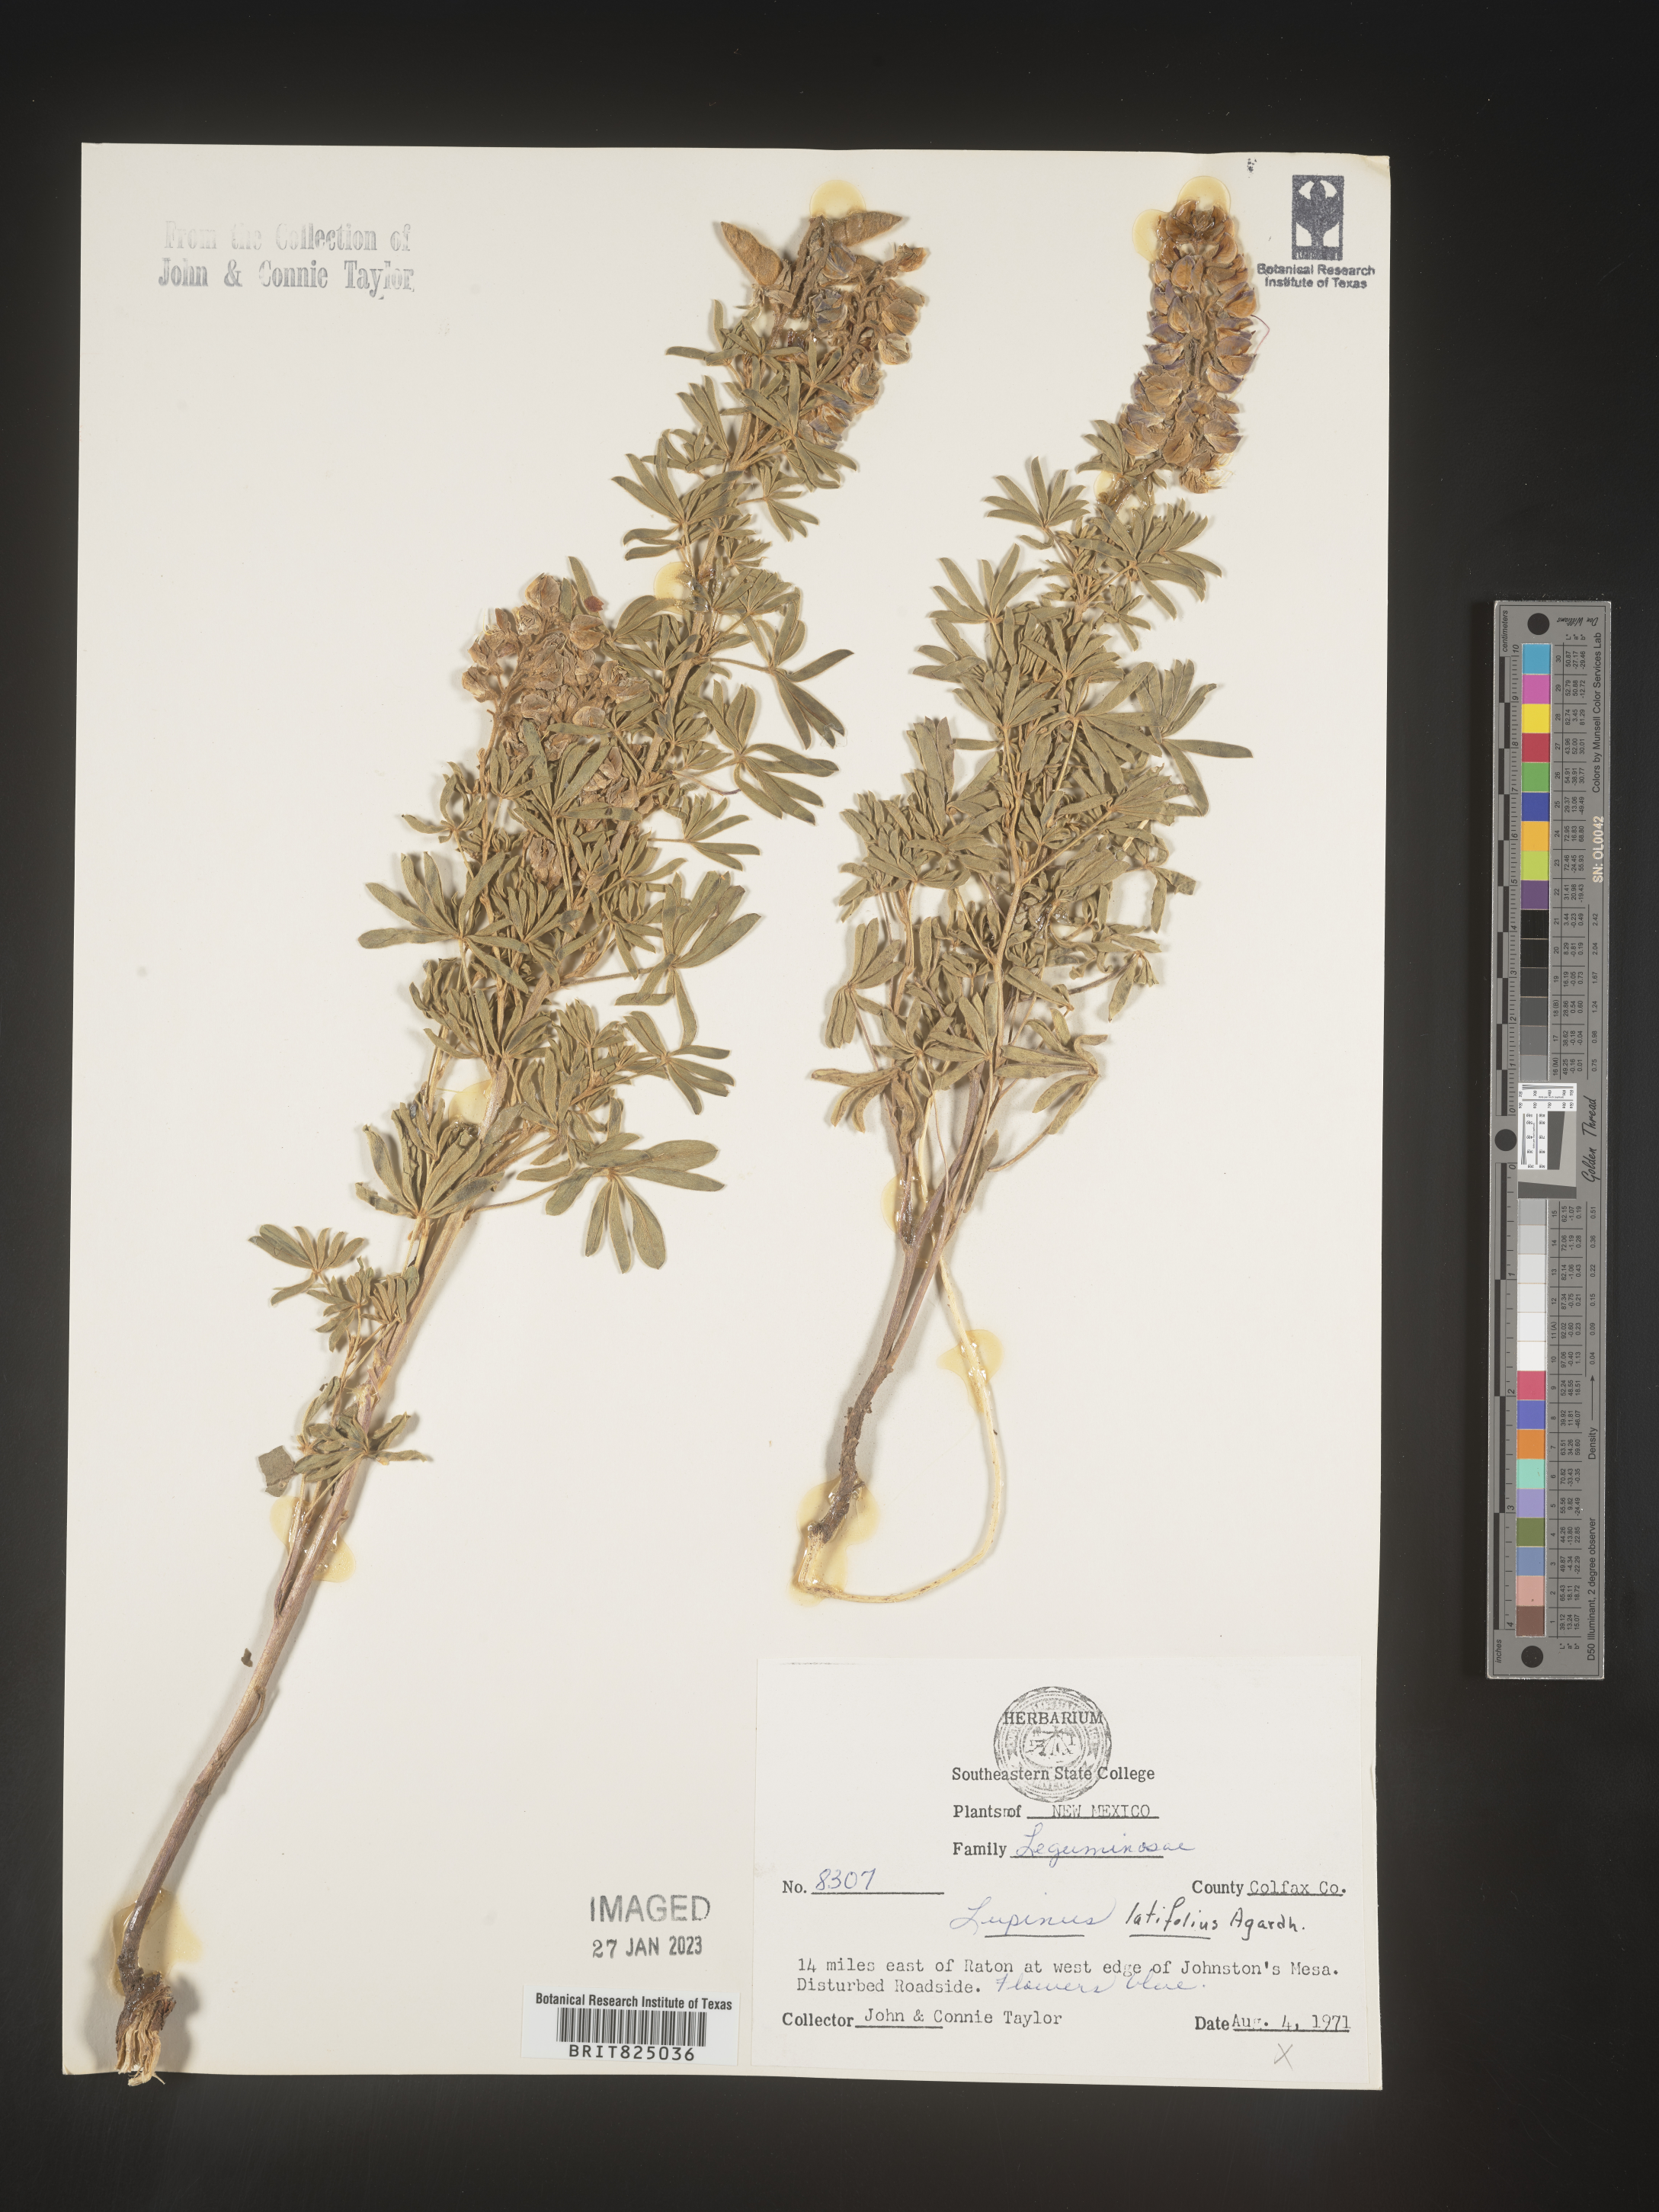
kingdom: Plantae
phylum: Tracheophyta
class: Magnoliopsida
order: Fabales
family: Fabaceae
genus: Lupinus
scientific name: Lupinus
